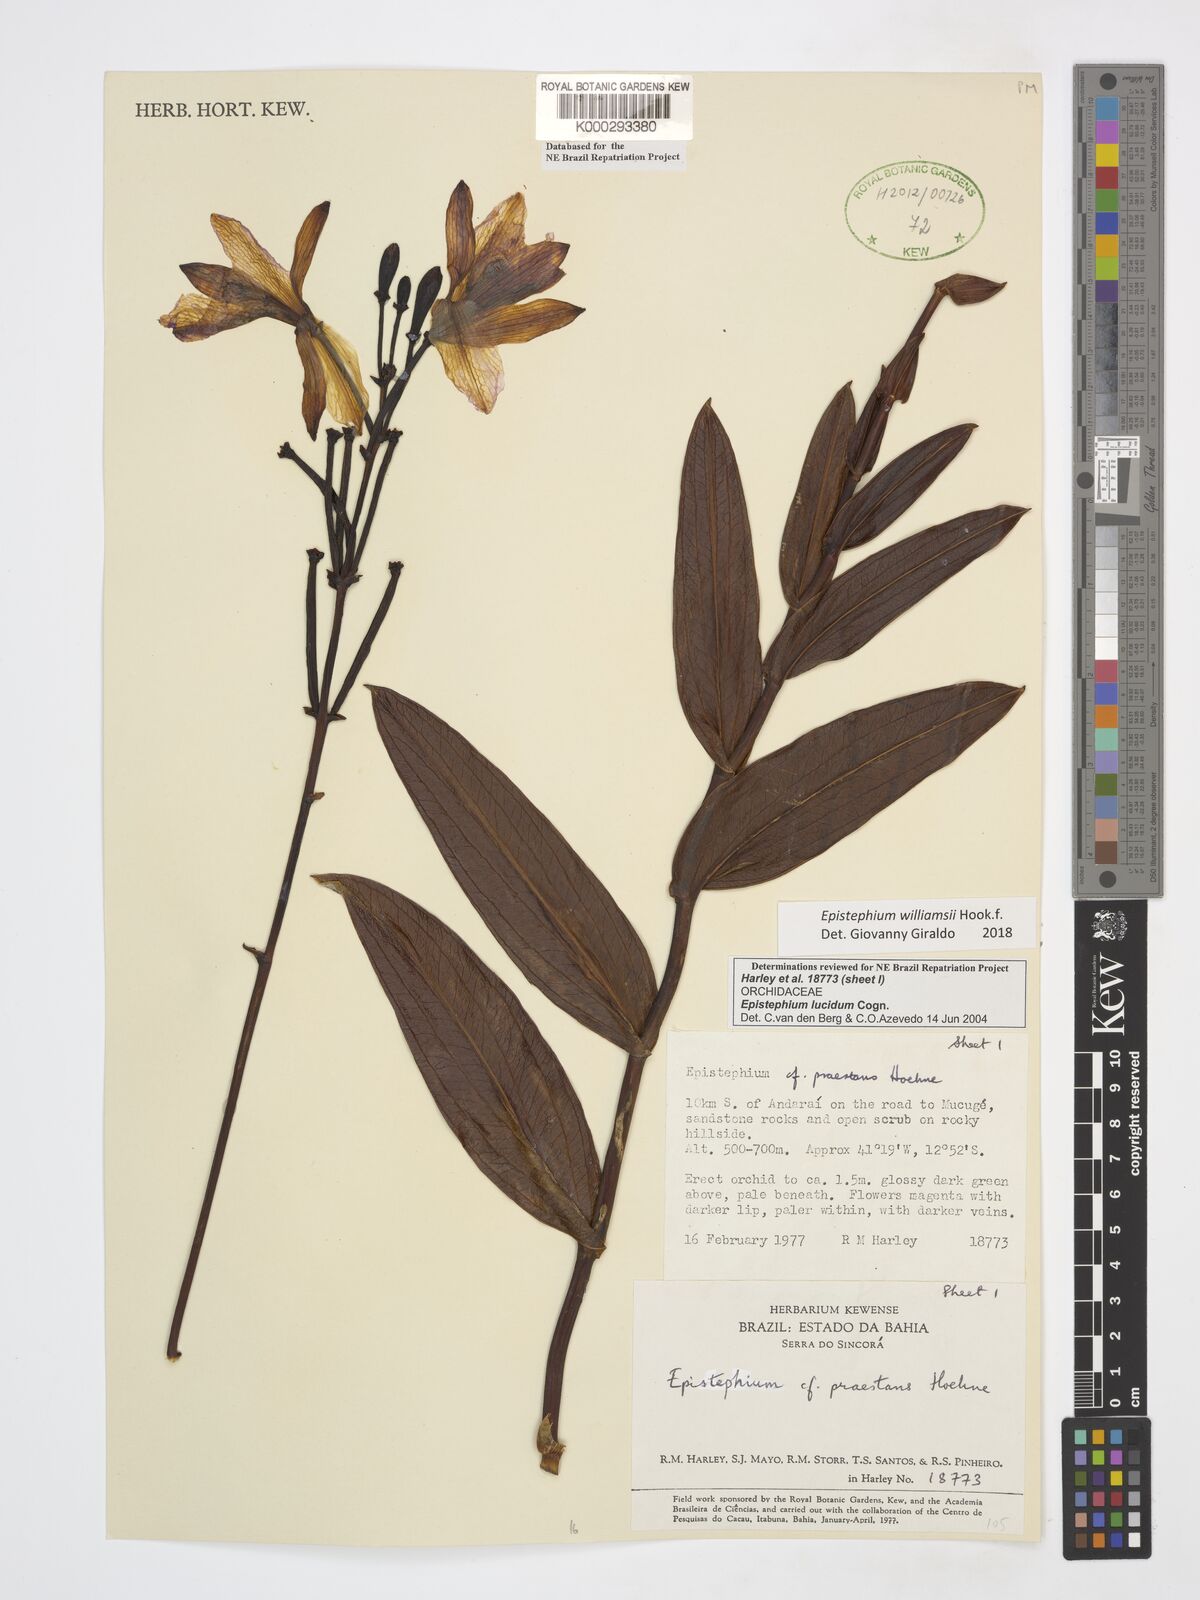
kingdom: Plantae
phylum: Tracheophyta
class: Liliopsida
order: Asparagales
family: Orchidaceae
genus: Epistephium
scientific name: Epistephium williamsii
